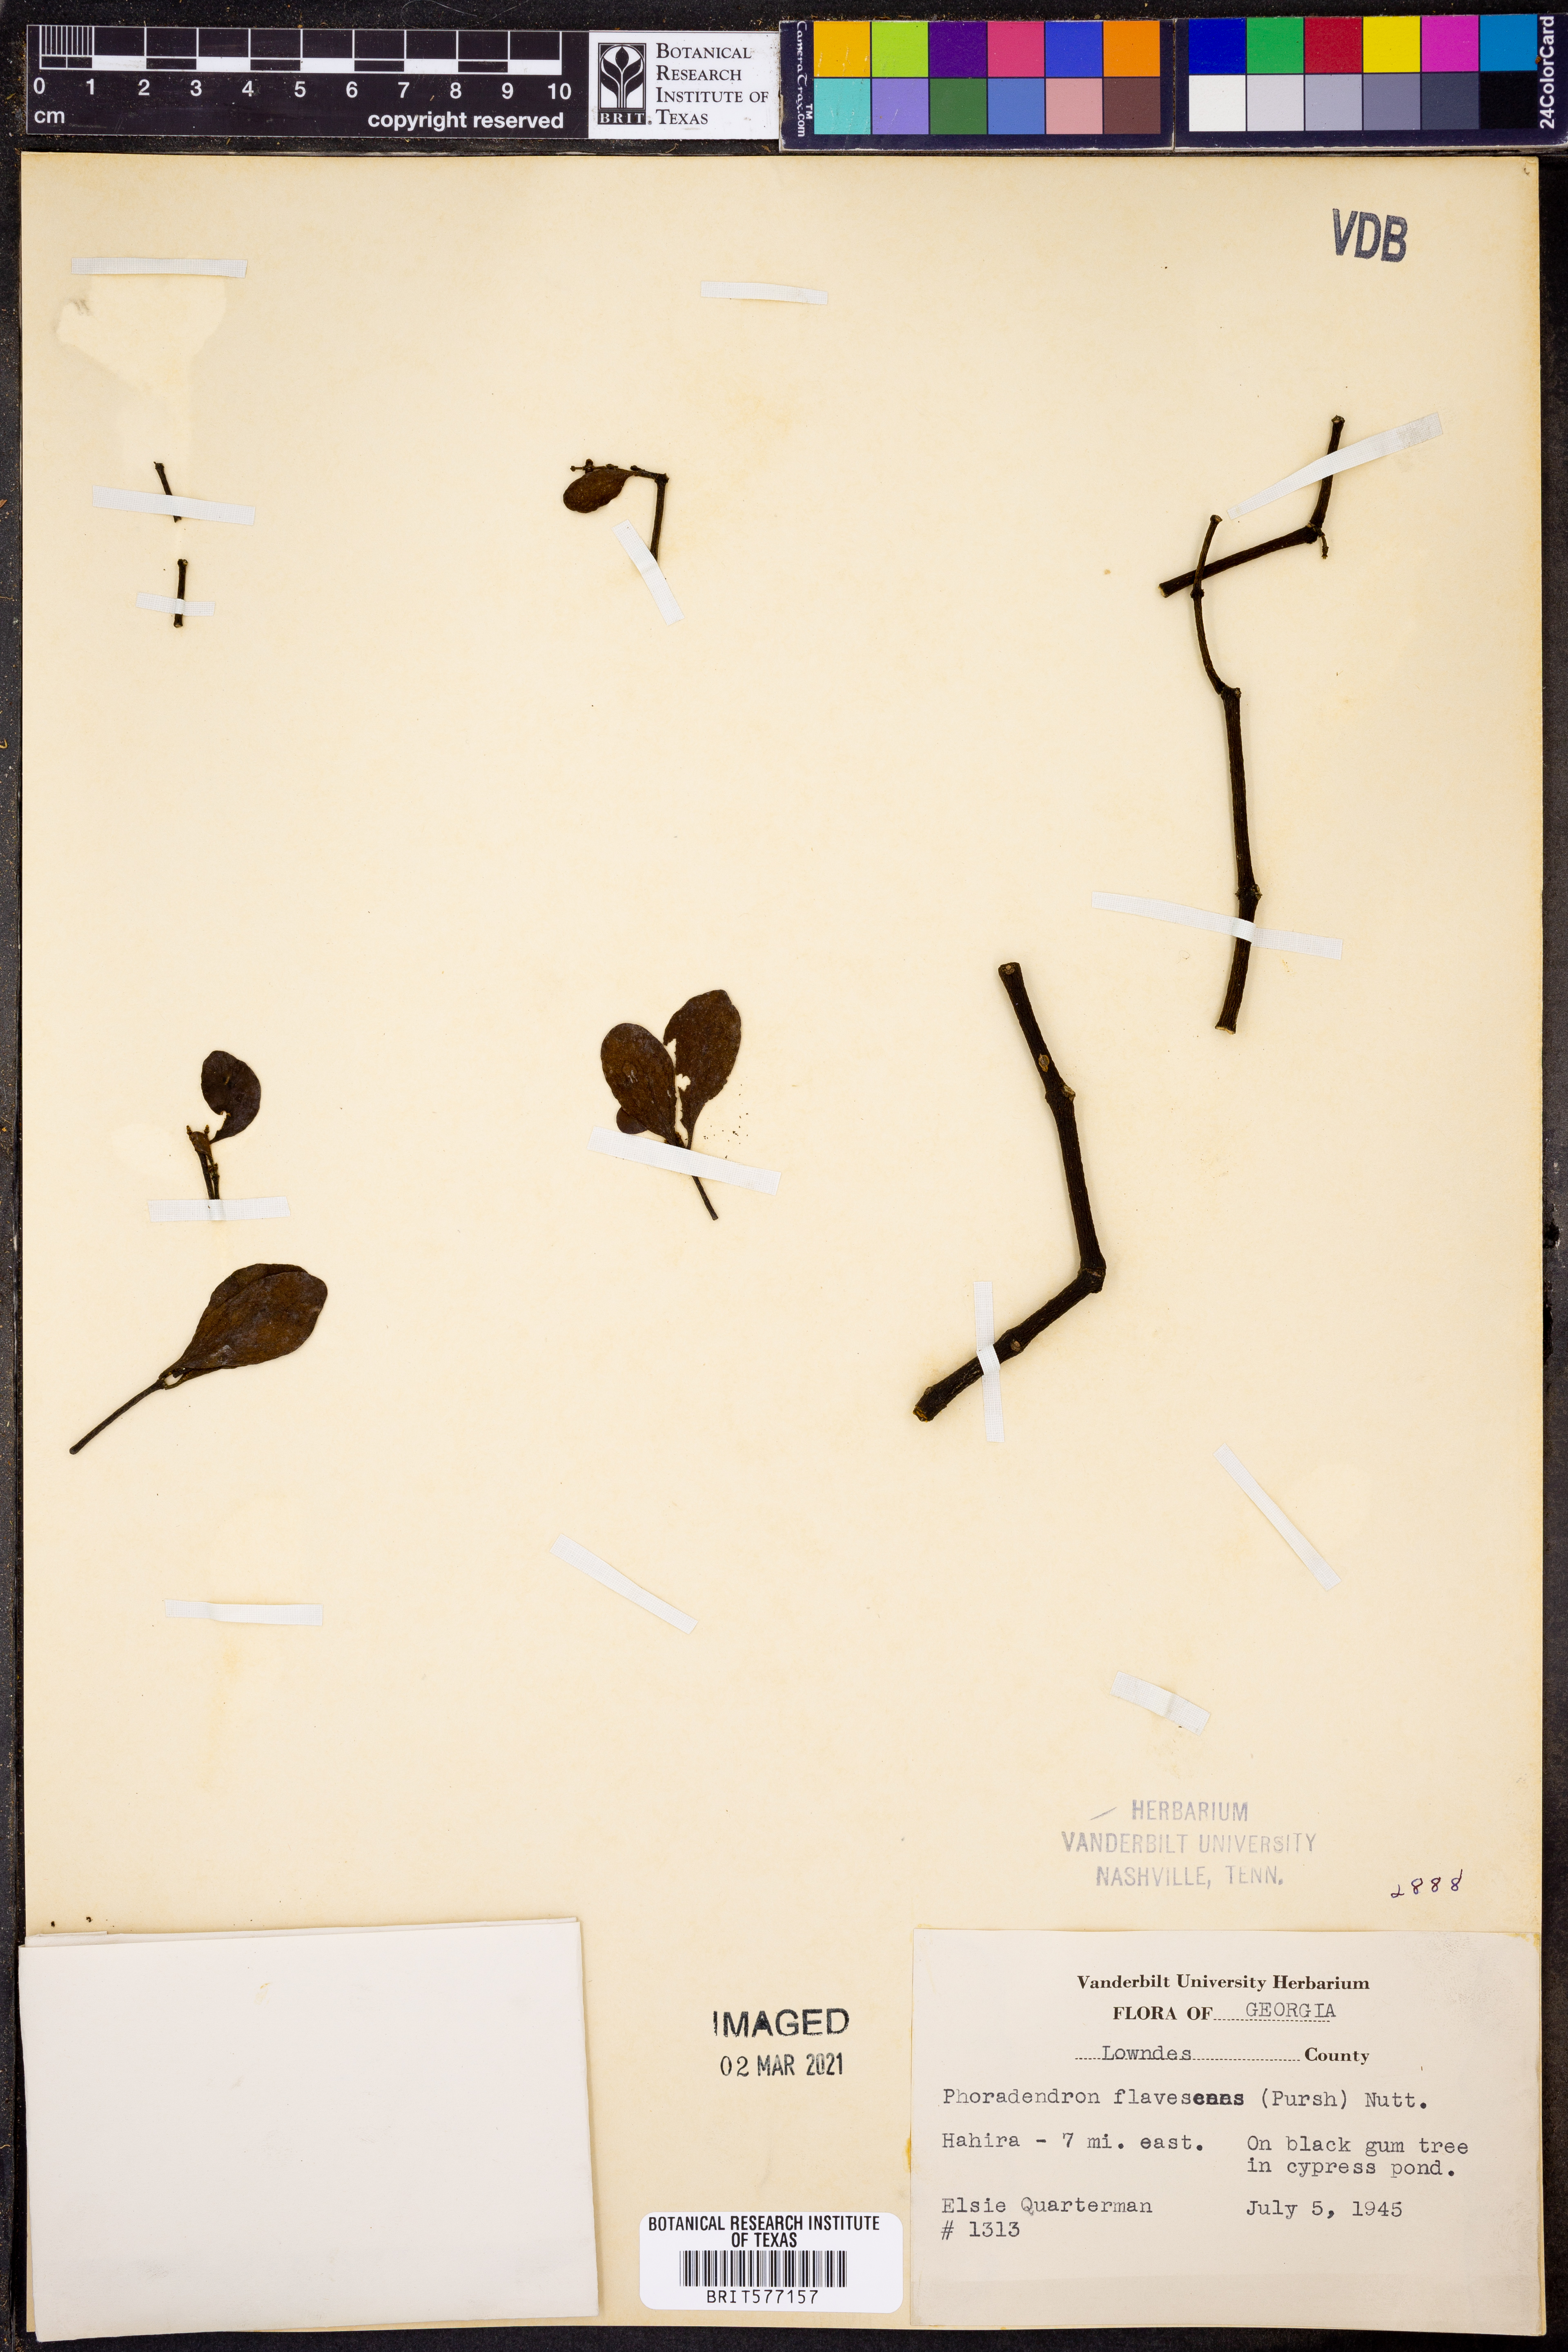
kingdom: Plantae
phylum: Tracheophyta
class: Magnoliopsida
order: Santalales
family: Viscaceae
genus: Phoradendron
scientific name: Phoradendron leucarpum
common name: Pacific mistletoe
